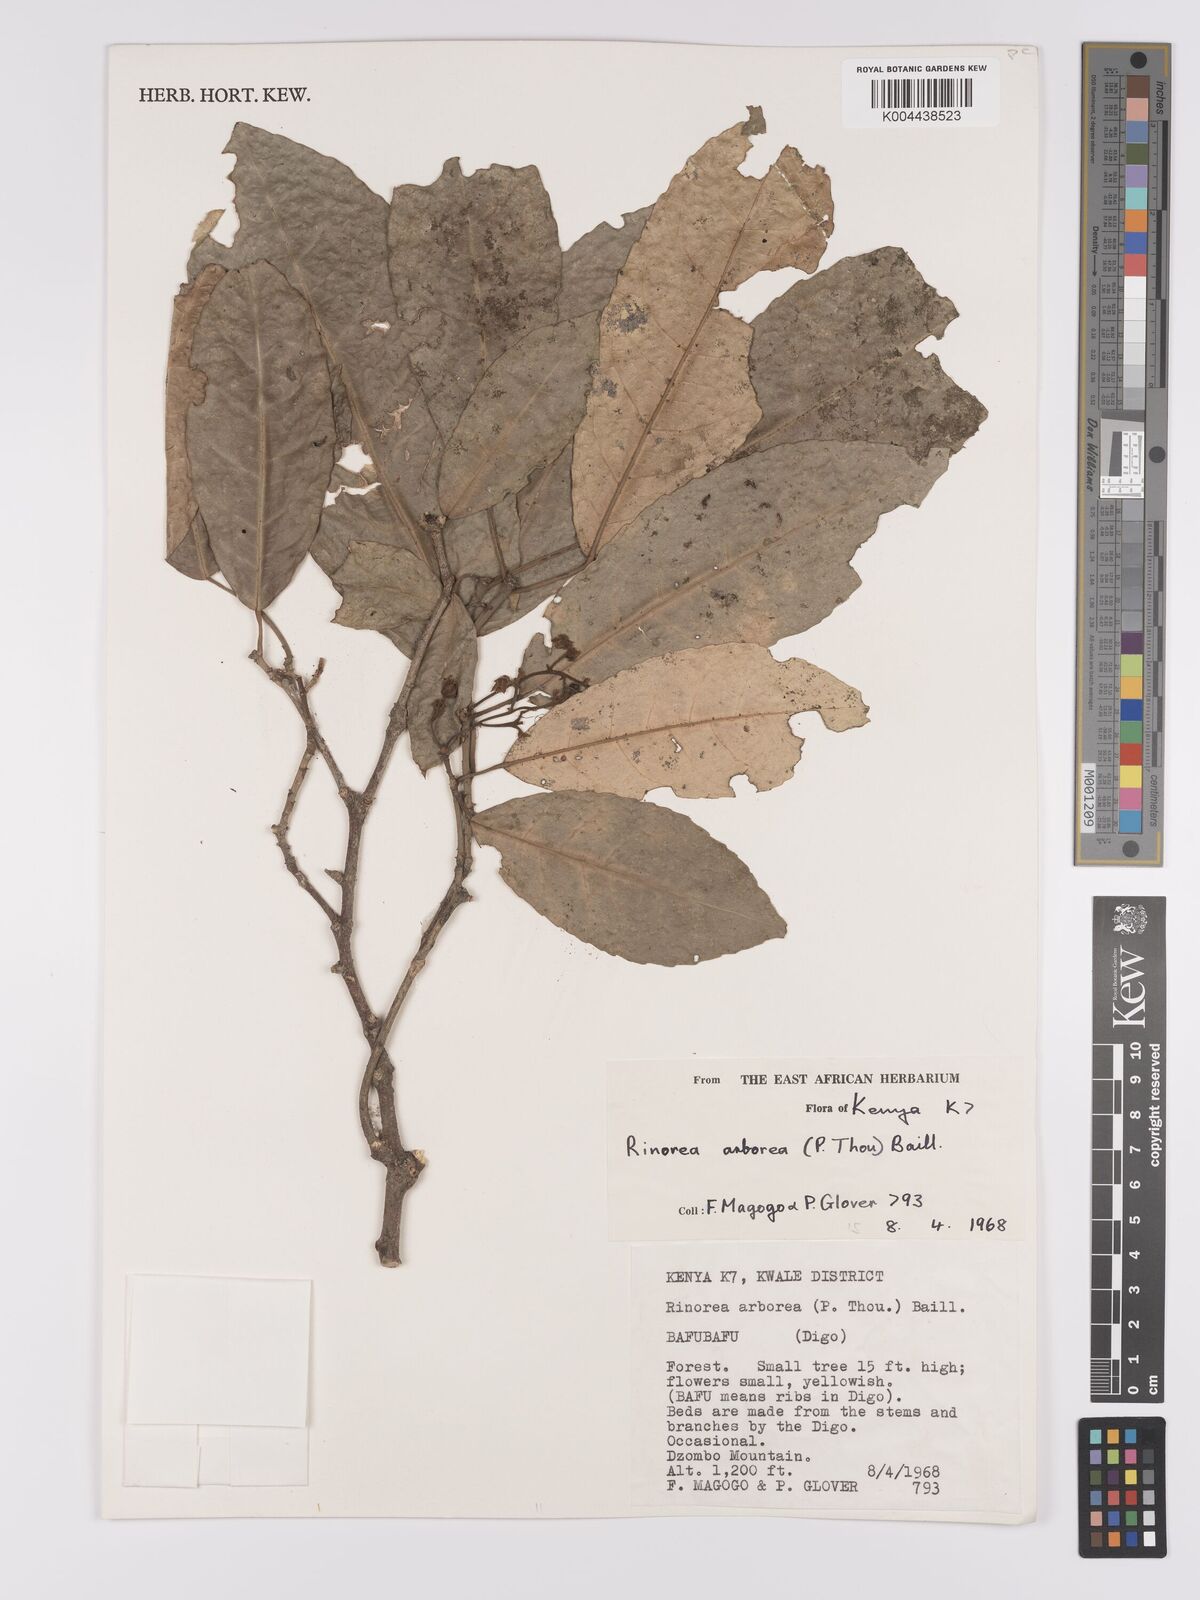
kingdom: Plantae
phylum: Tracheophyta
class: Magnoliopsida
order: Malpighiales
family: Violaceae
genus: Rinorea
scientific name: Rinorea arborea
